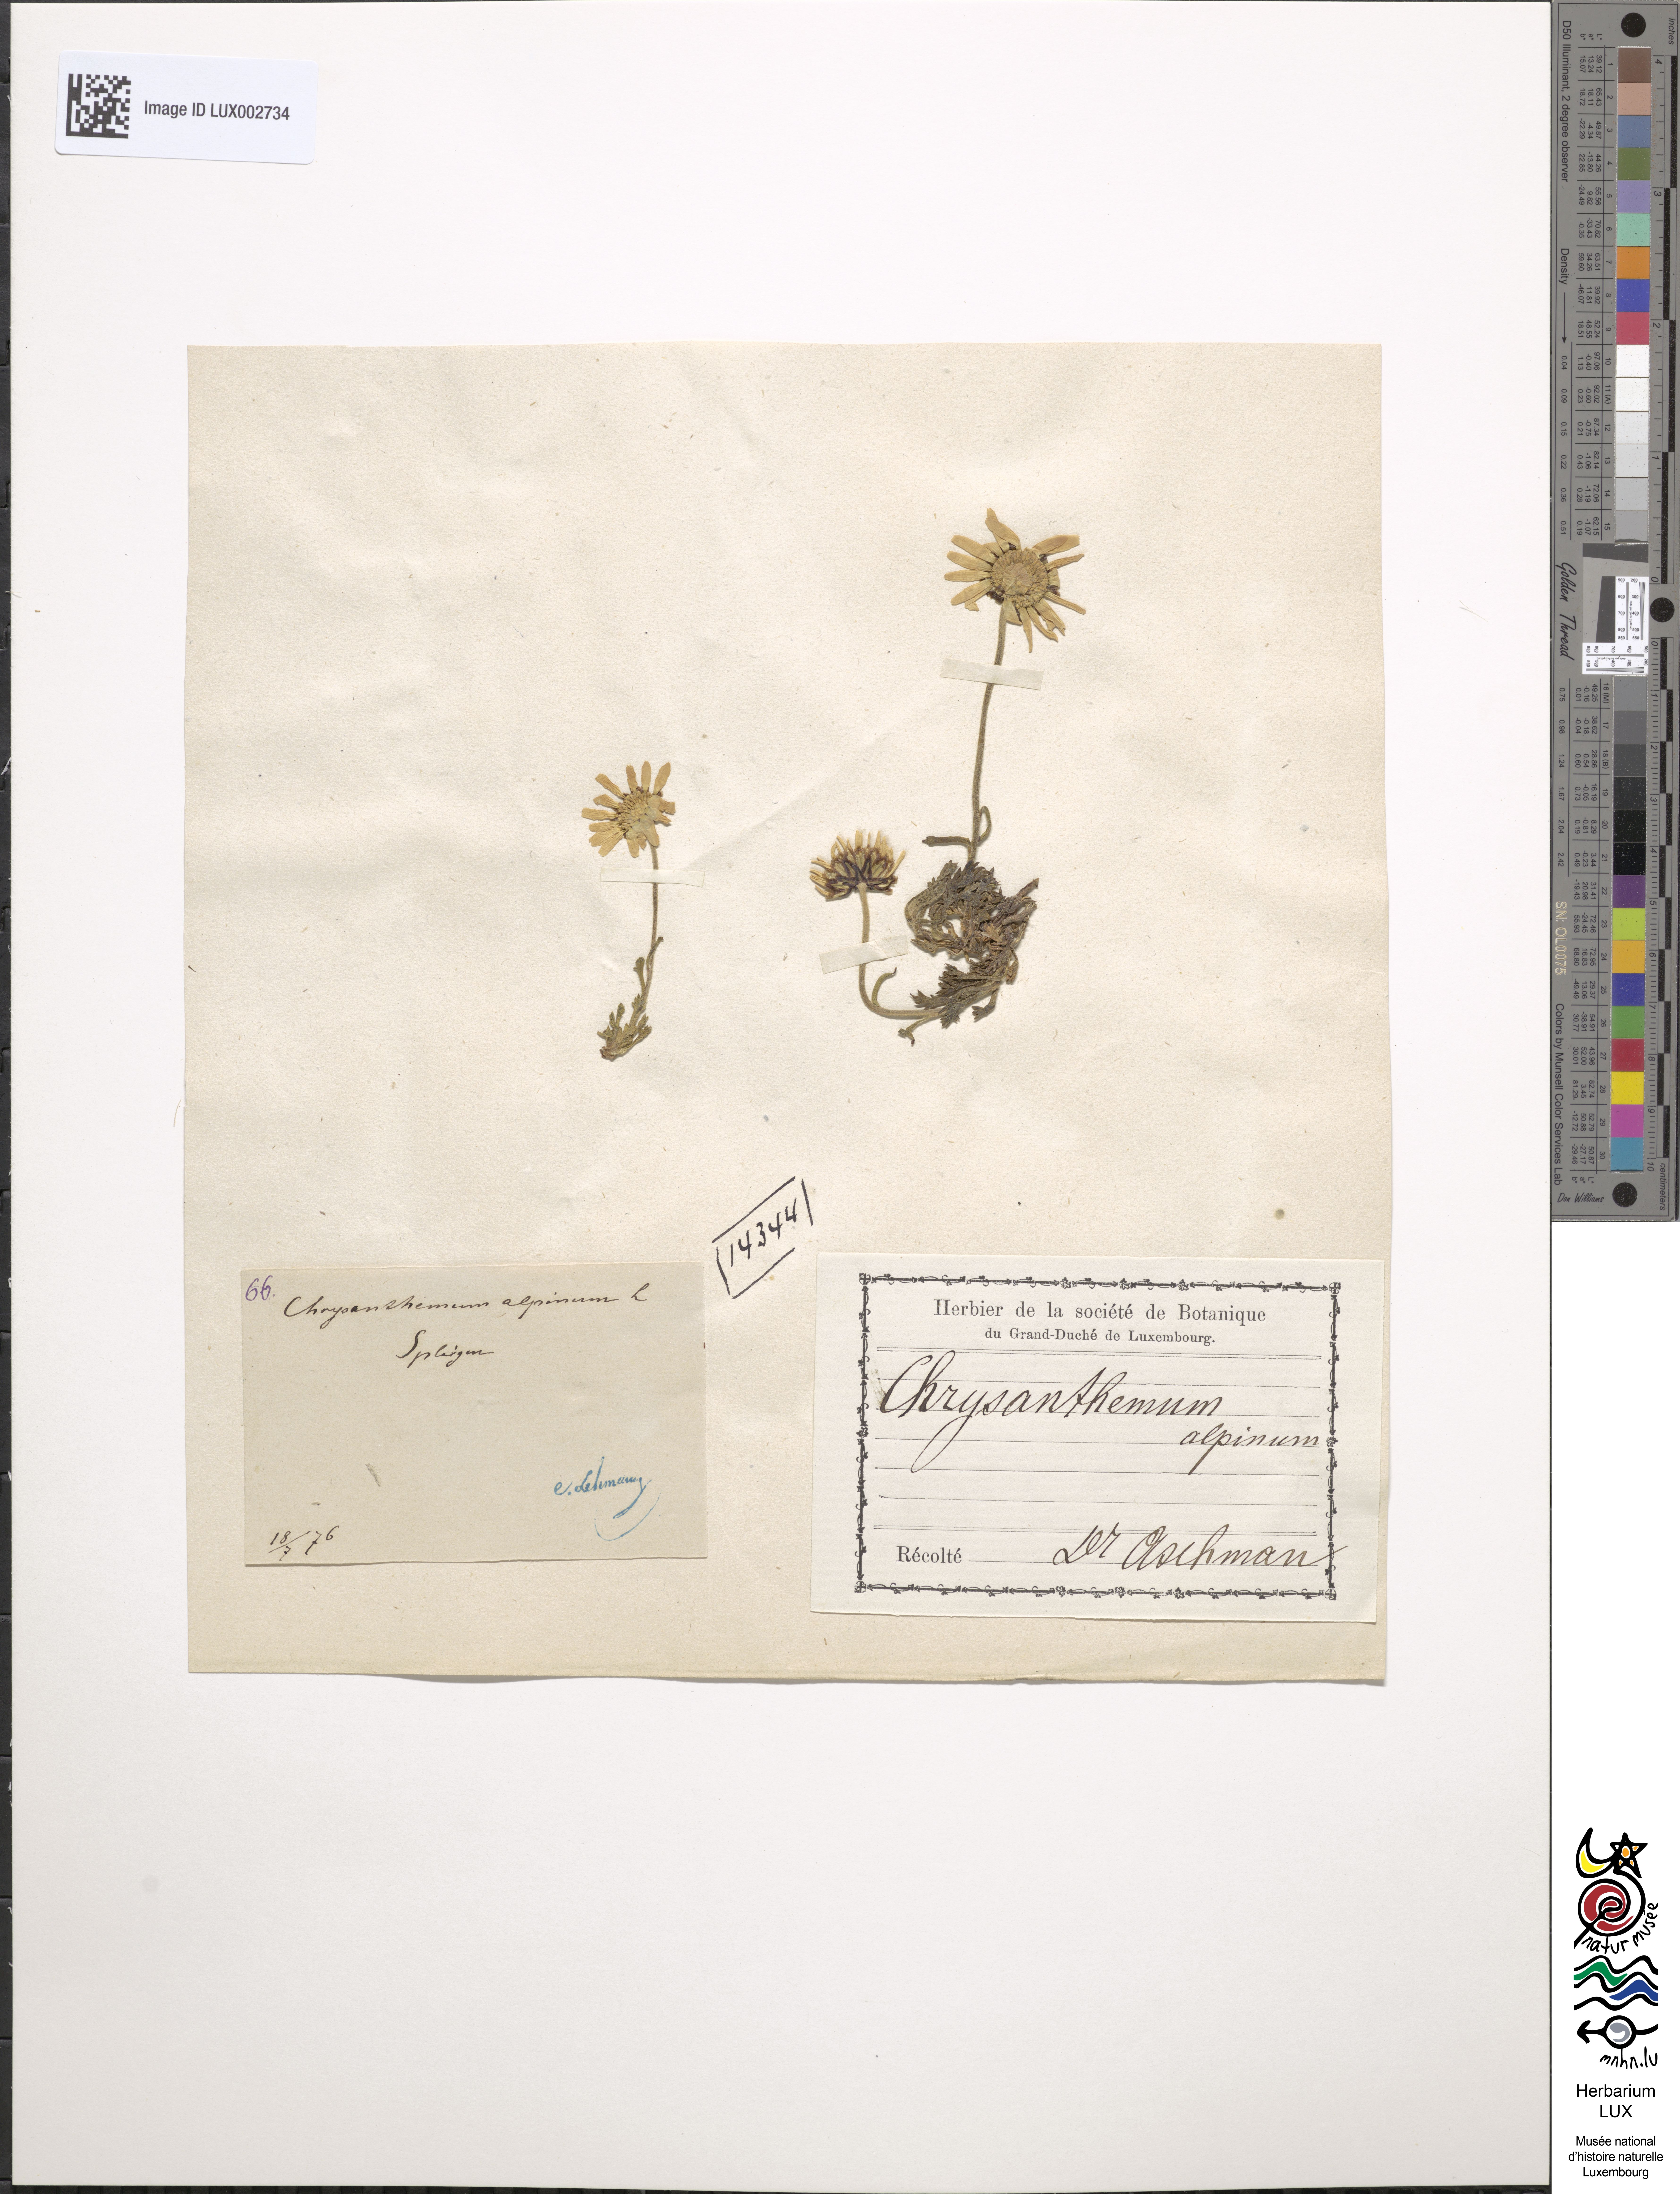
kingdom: Plantae
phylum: Tracheophyta
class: Magnoliopsida
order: Asterales
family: Asteraceae
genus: Leucanthemopsis
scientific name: Leucanthemopsis alpina
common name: Alpine moon daisy
